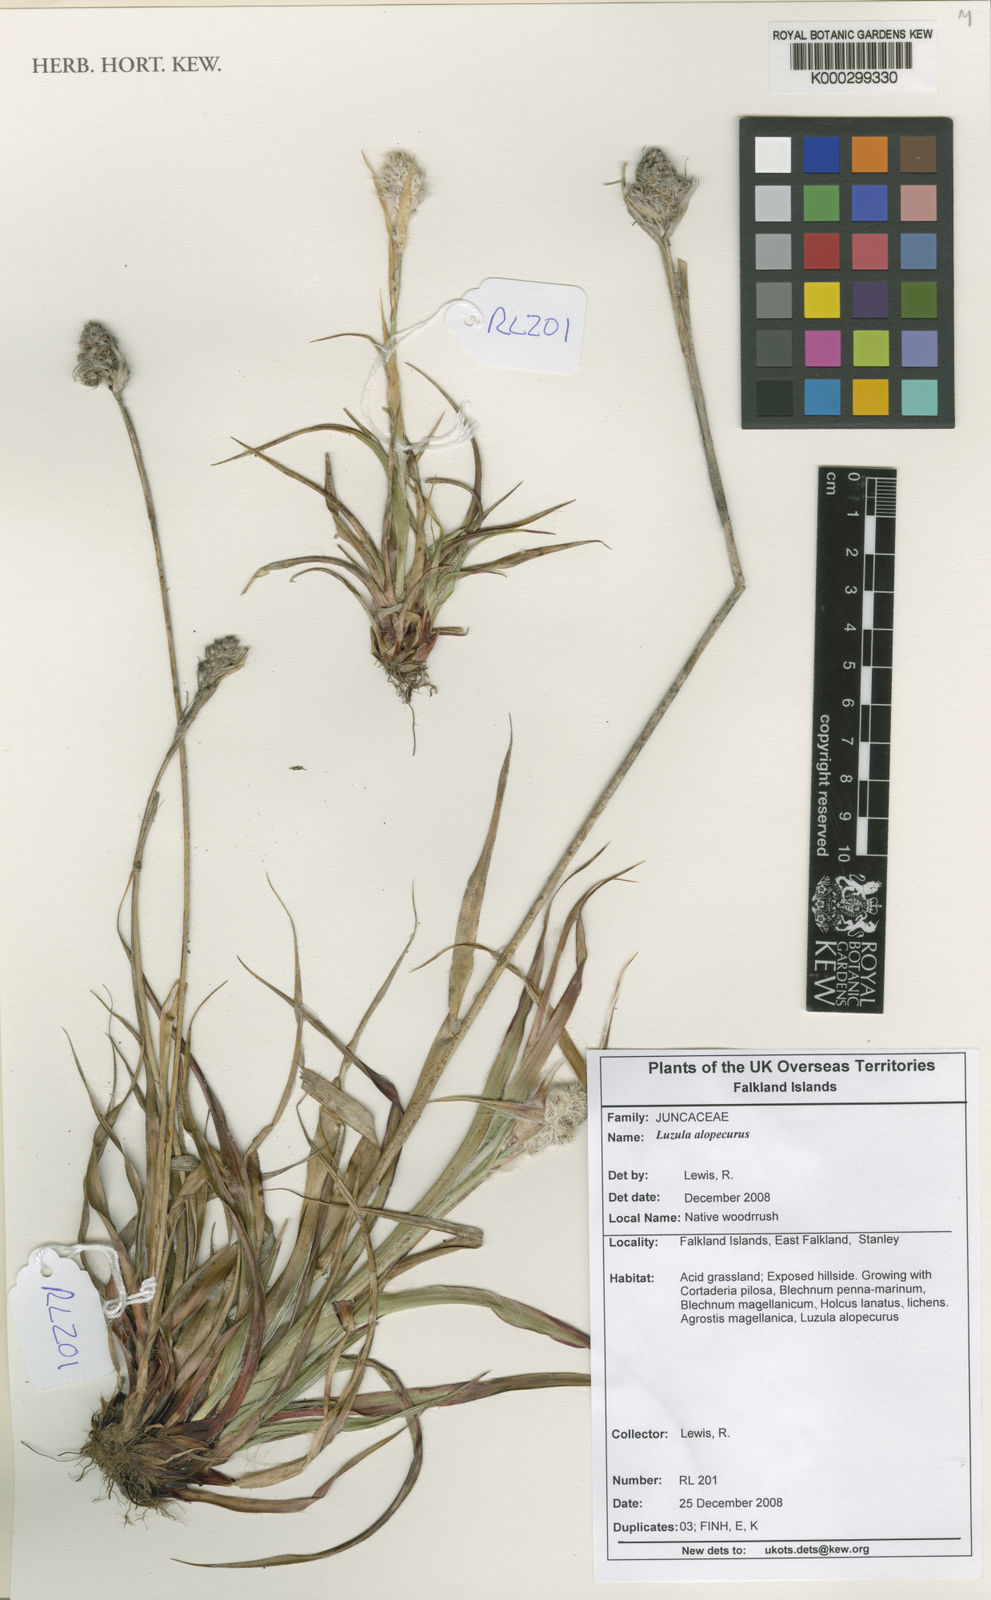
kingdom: Plantae
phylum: Tracheophyta
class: Liliopsida
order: Poales
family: Juncaceae
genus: Luzula
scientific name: Luzula alopecurus
